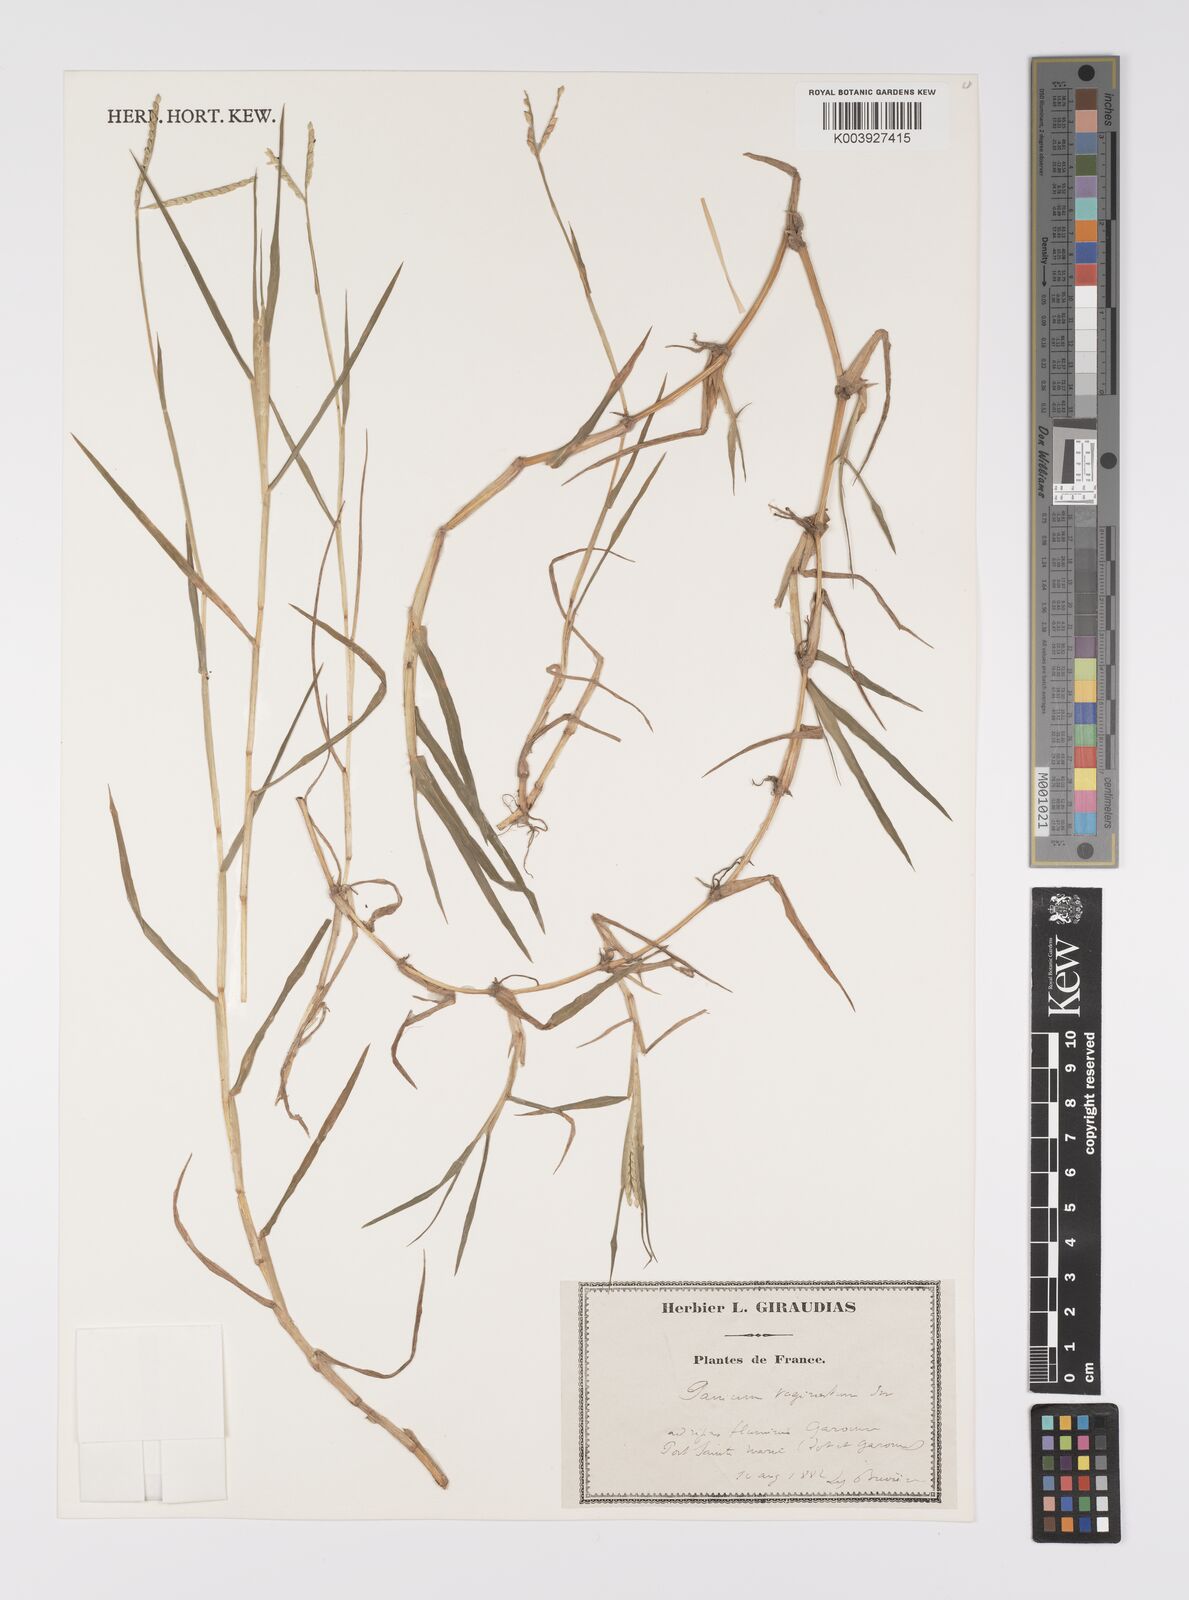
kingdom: Plantae
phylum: Tracheophyta
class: Liliopsida
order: Poales
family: Poaceae
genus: Paspalum
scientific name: Paspalum distichum
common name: Knotgrass
